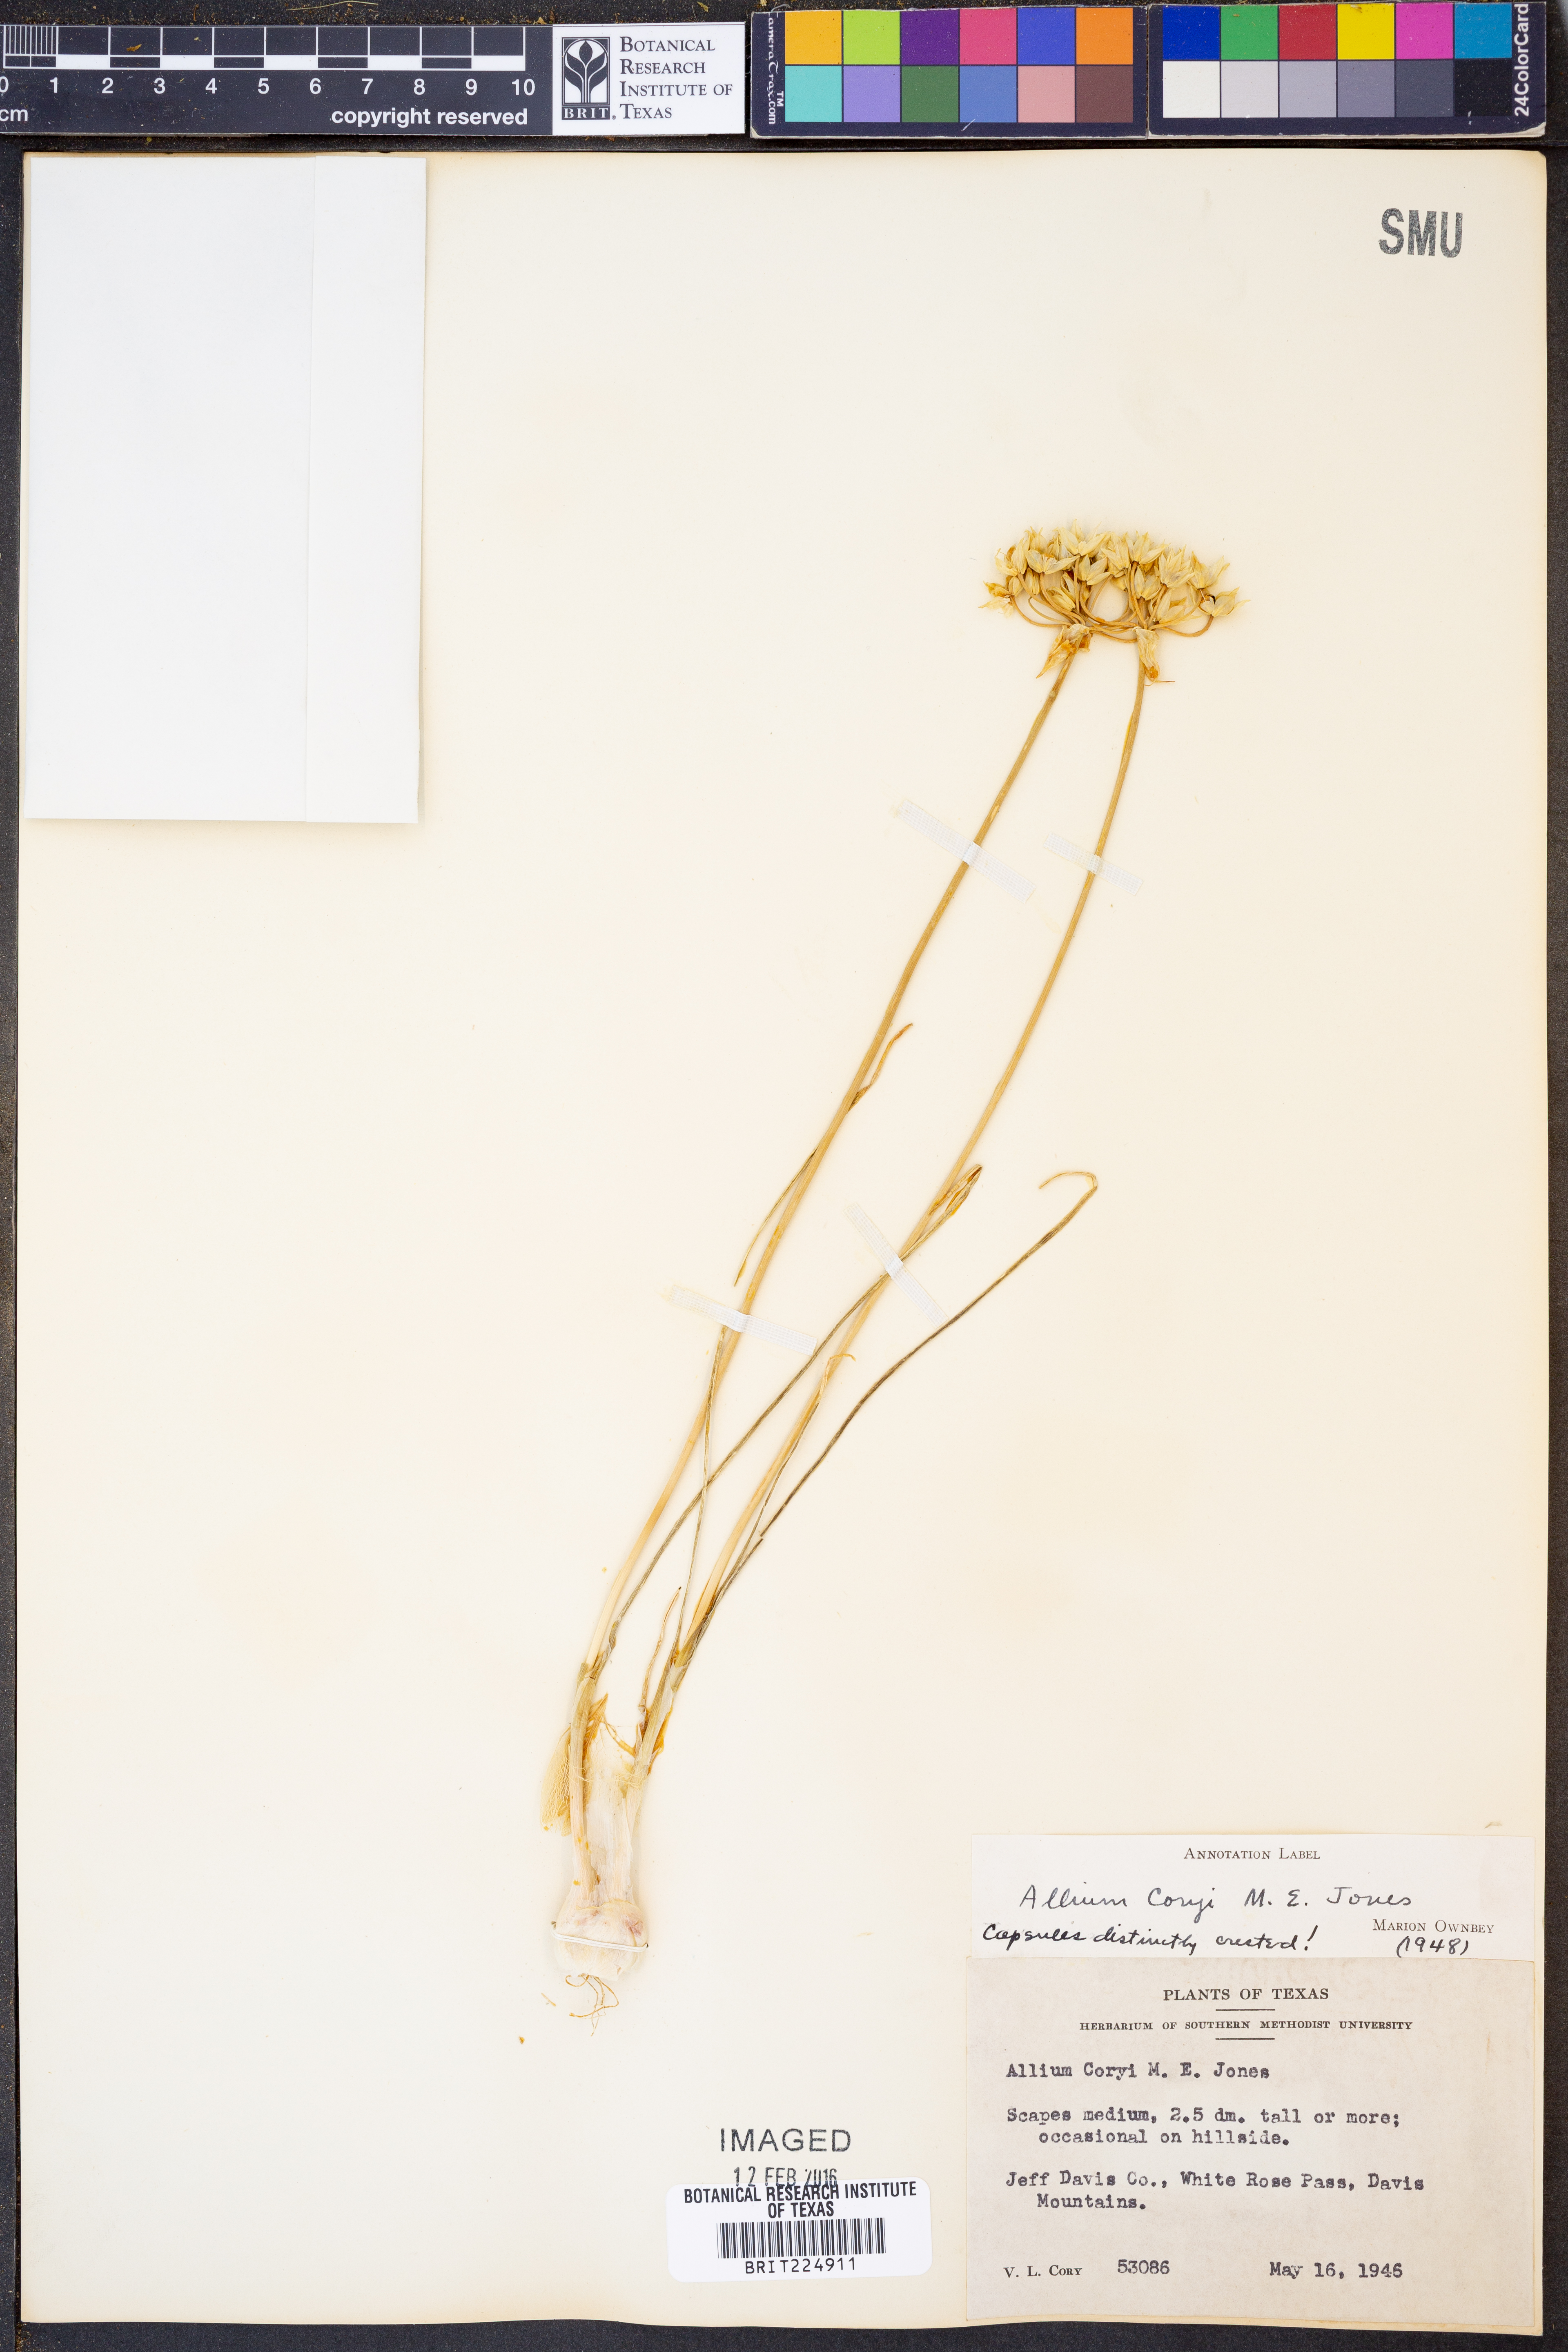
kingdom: Plantae
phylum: Tracheophyta
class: Liliopsida
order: Asparagales
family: Amaryllidaceae
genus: Allium
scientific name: Allium coryi
